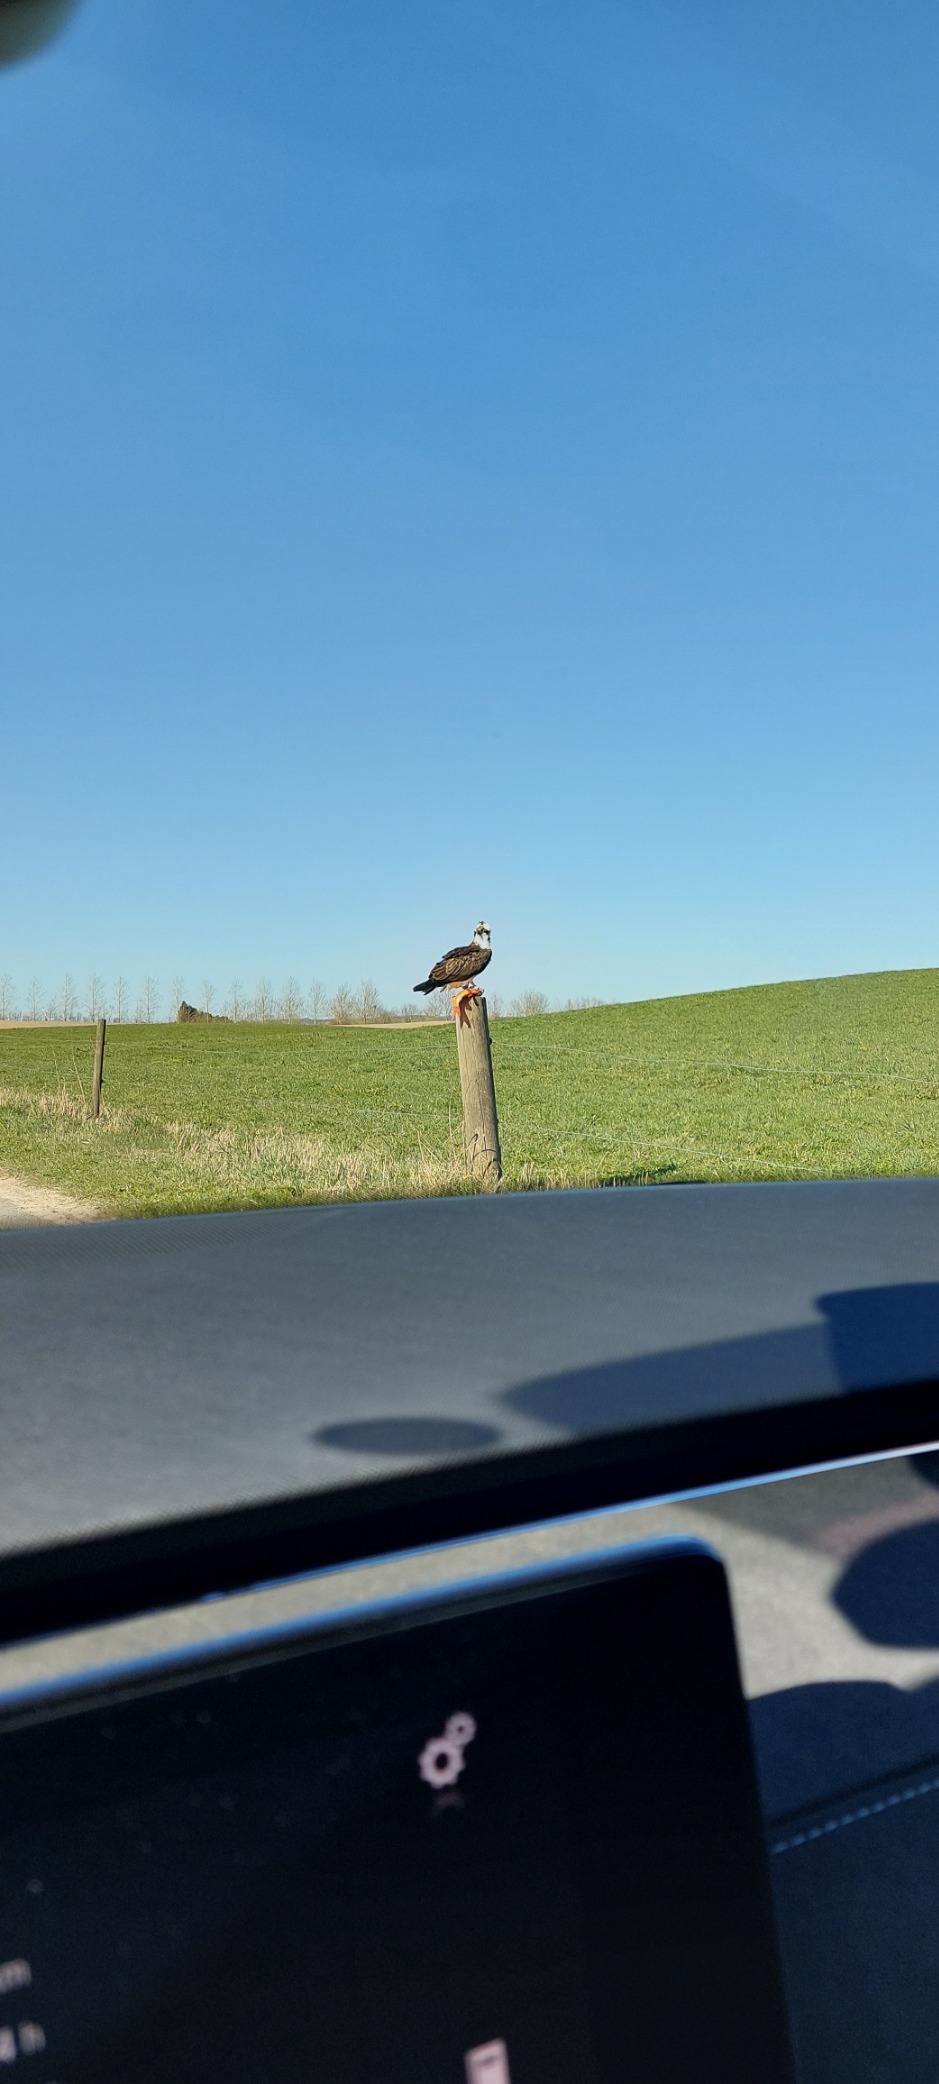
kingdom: Animalia
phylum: Chordata
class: Aves
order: Accipitriformes
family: Pandionidae
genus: Pandion
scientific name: Pandion haliaetus
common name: Fiskeørn
